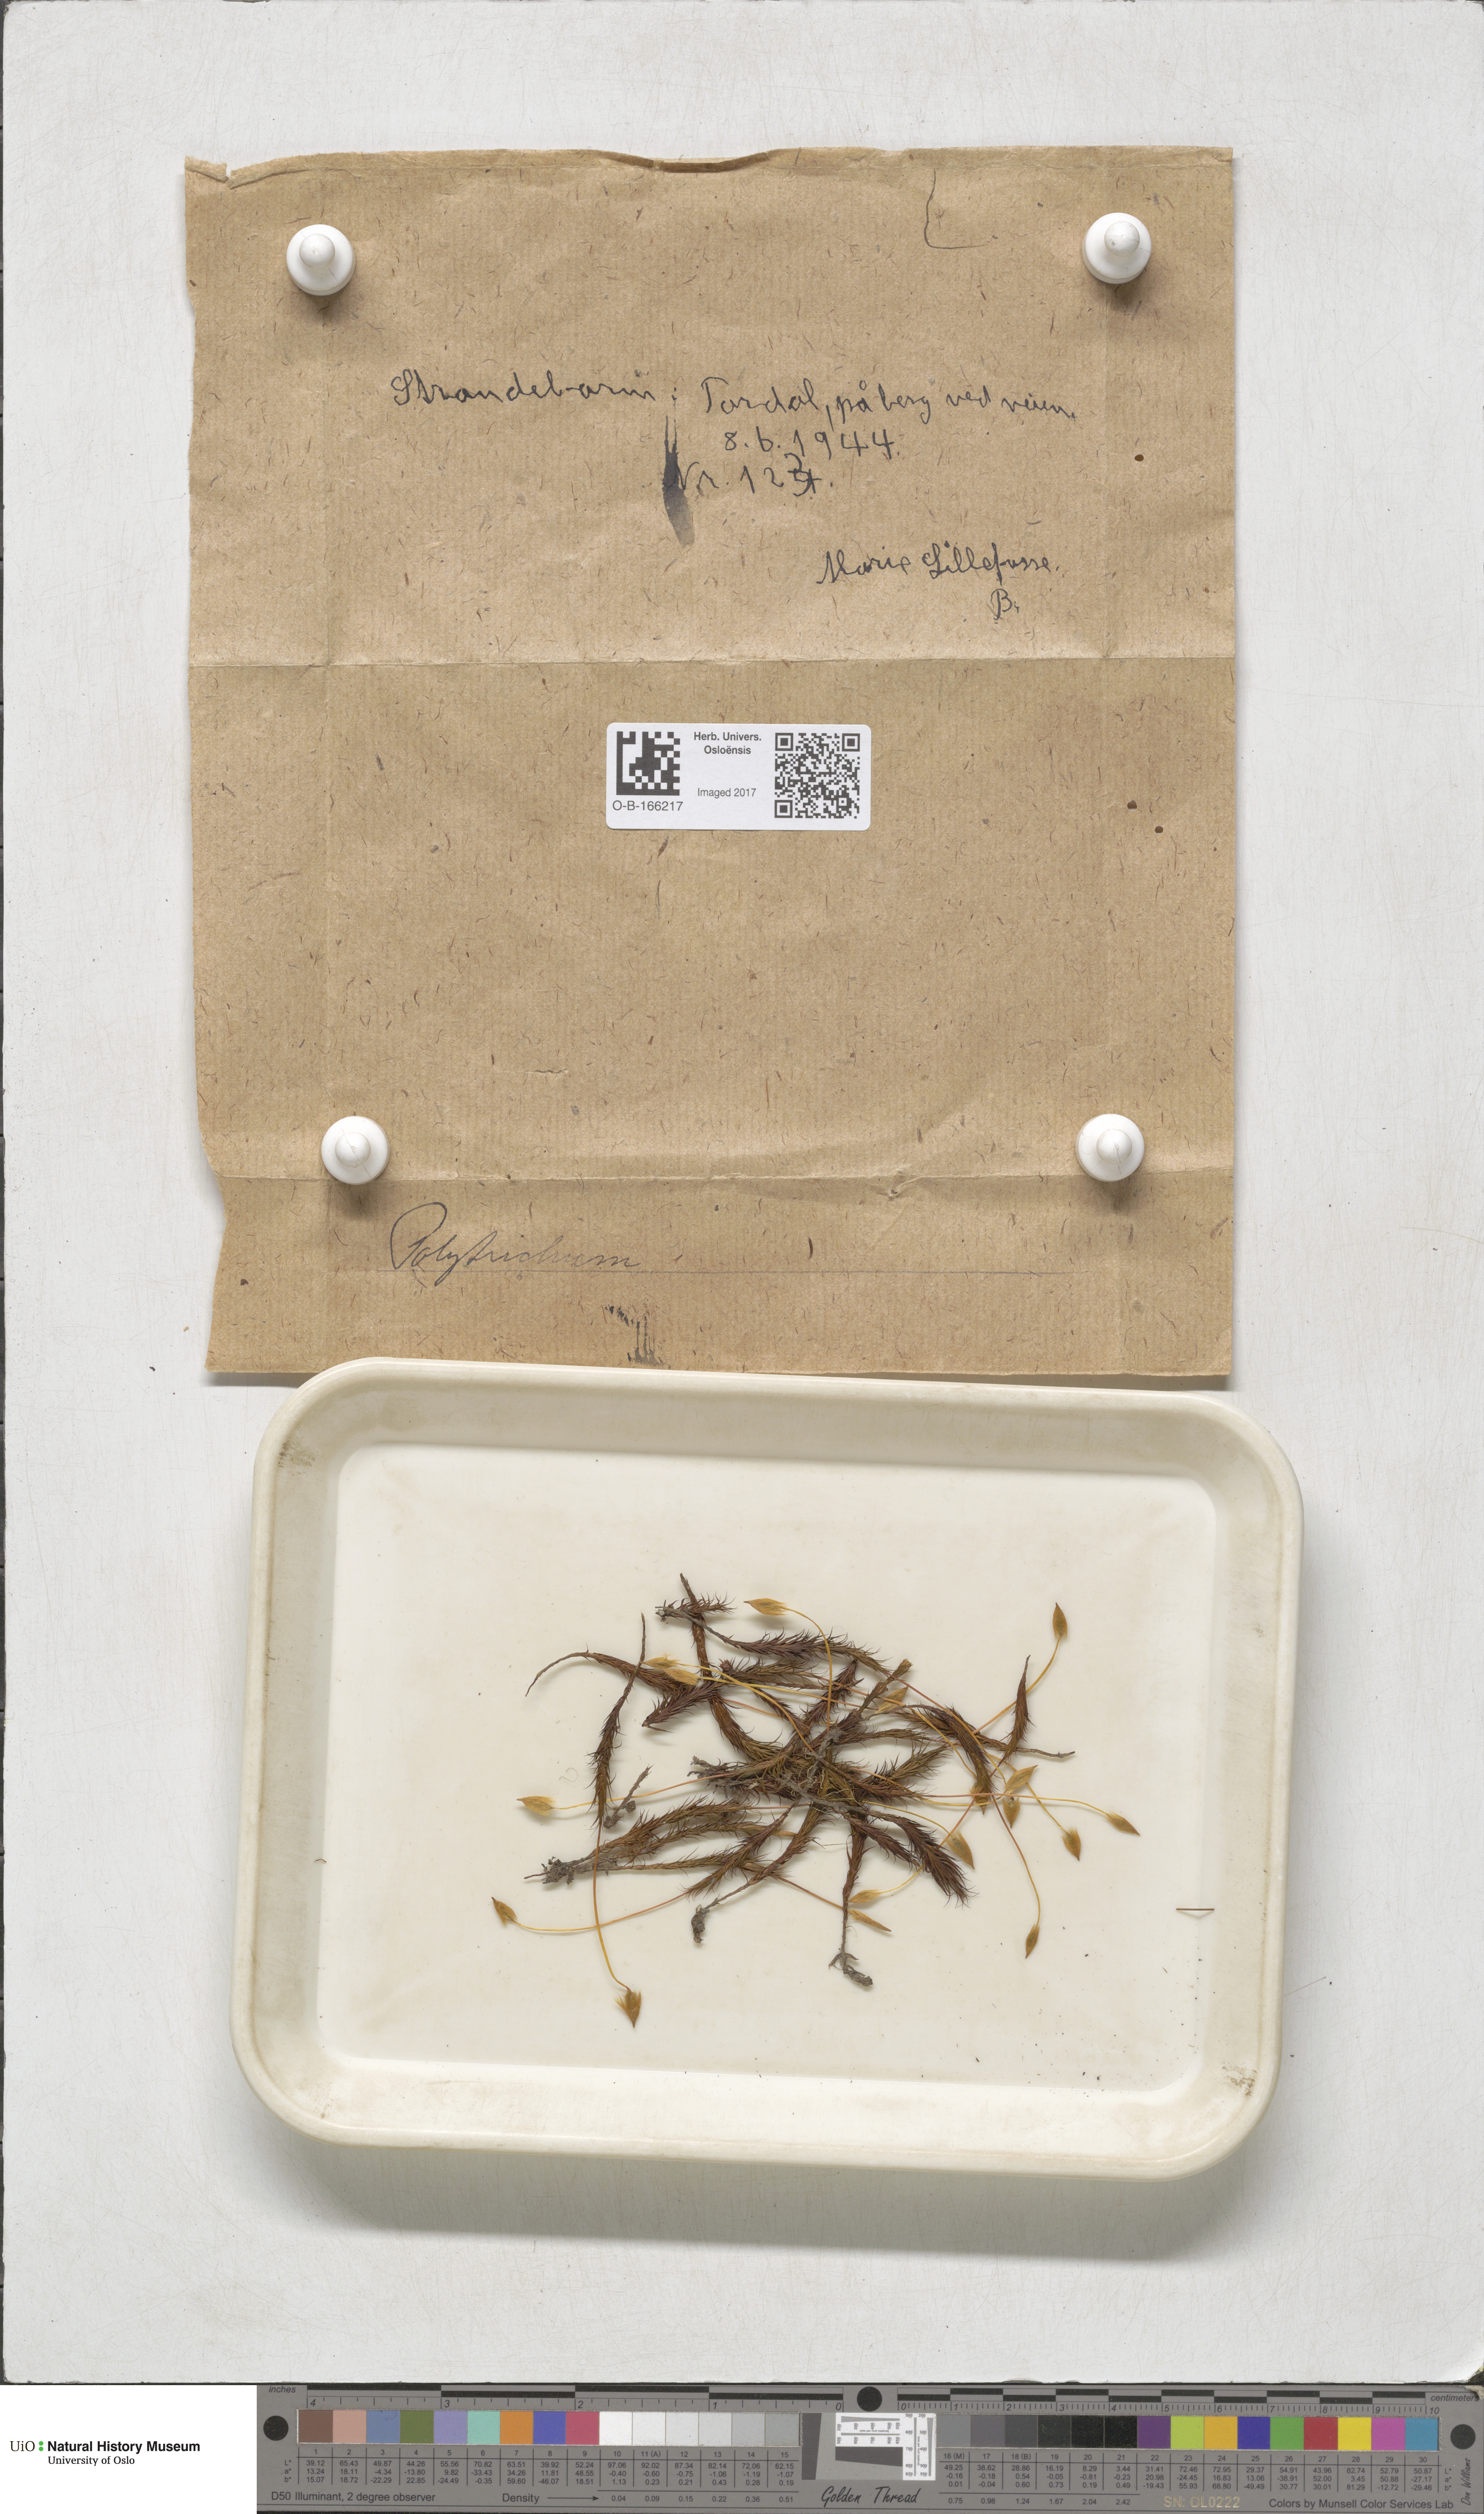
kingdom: Plantae
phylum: Bryophyta
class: Polytrichopsida
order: Polytrichales
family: Polytrichaceae
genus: Polytrichum
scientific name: Polytrichum
